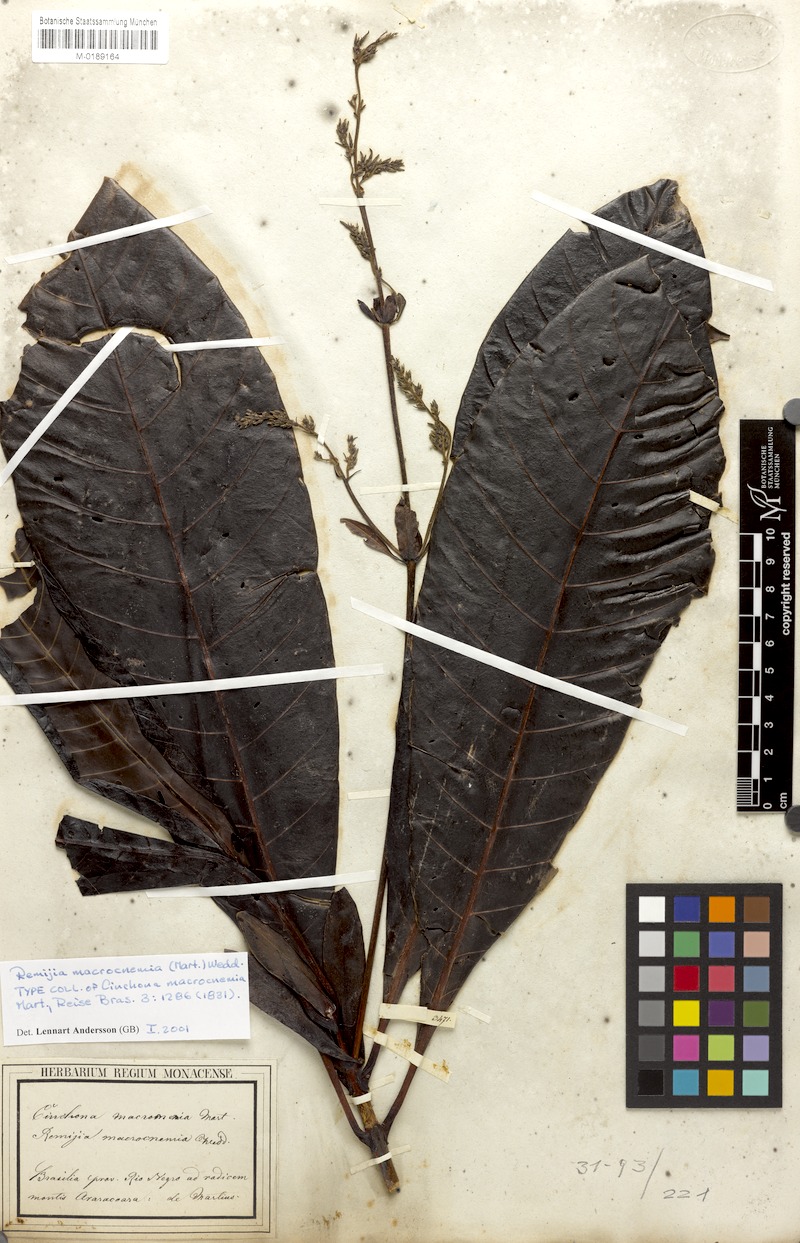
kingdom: Plantae
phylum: Tracheophyta
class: Magnoliopsida
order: Gentianales
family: Rubiaceae
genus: Remijia
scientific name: Remijia macrocnemia
